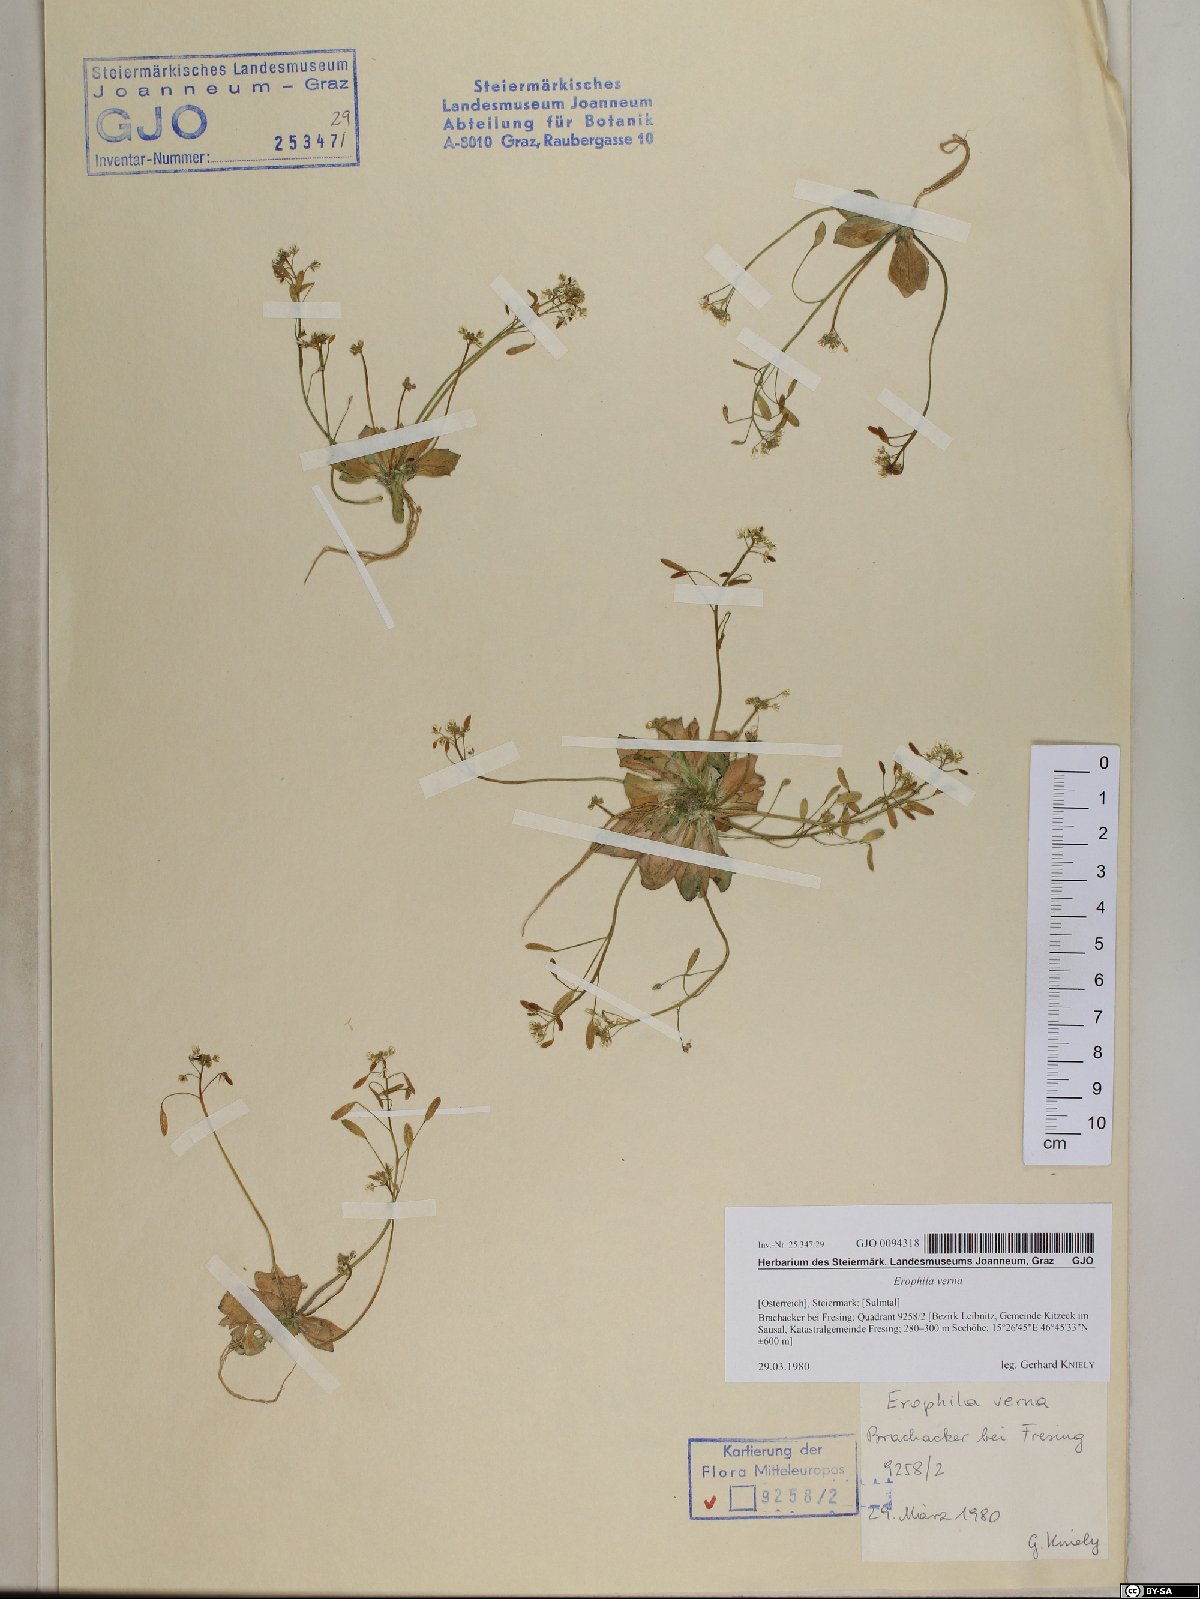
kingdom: Plantae
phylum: Tracheophyta
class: Magnoliopsida
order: Brassicales
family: Brassicaceae
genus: Draba
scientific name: Draba verna
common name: Spring draba
